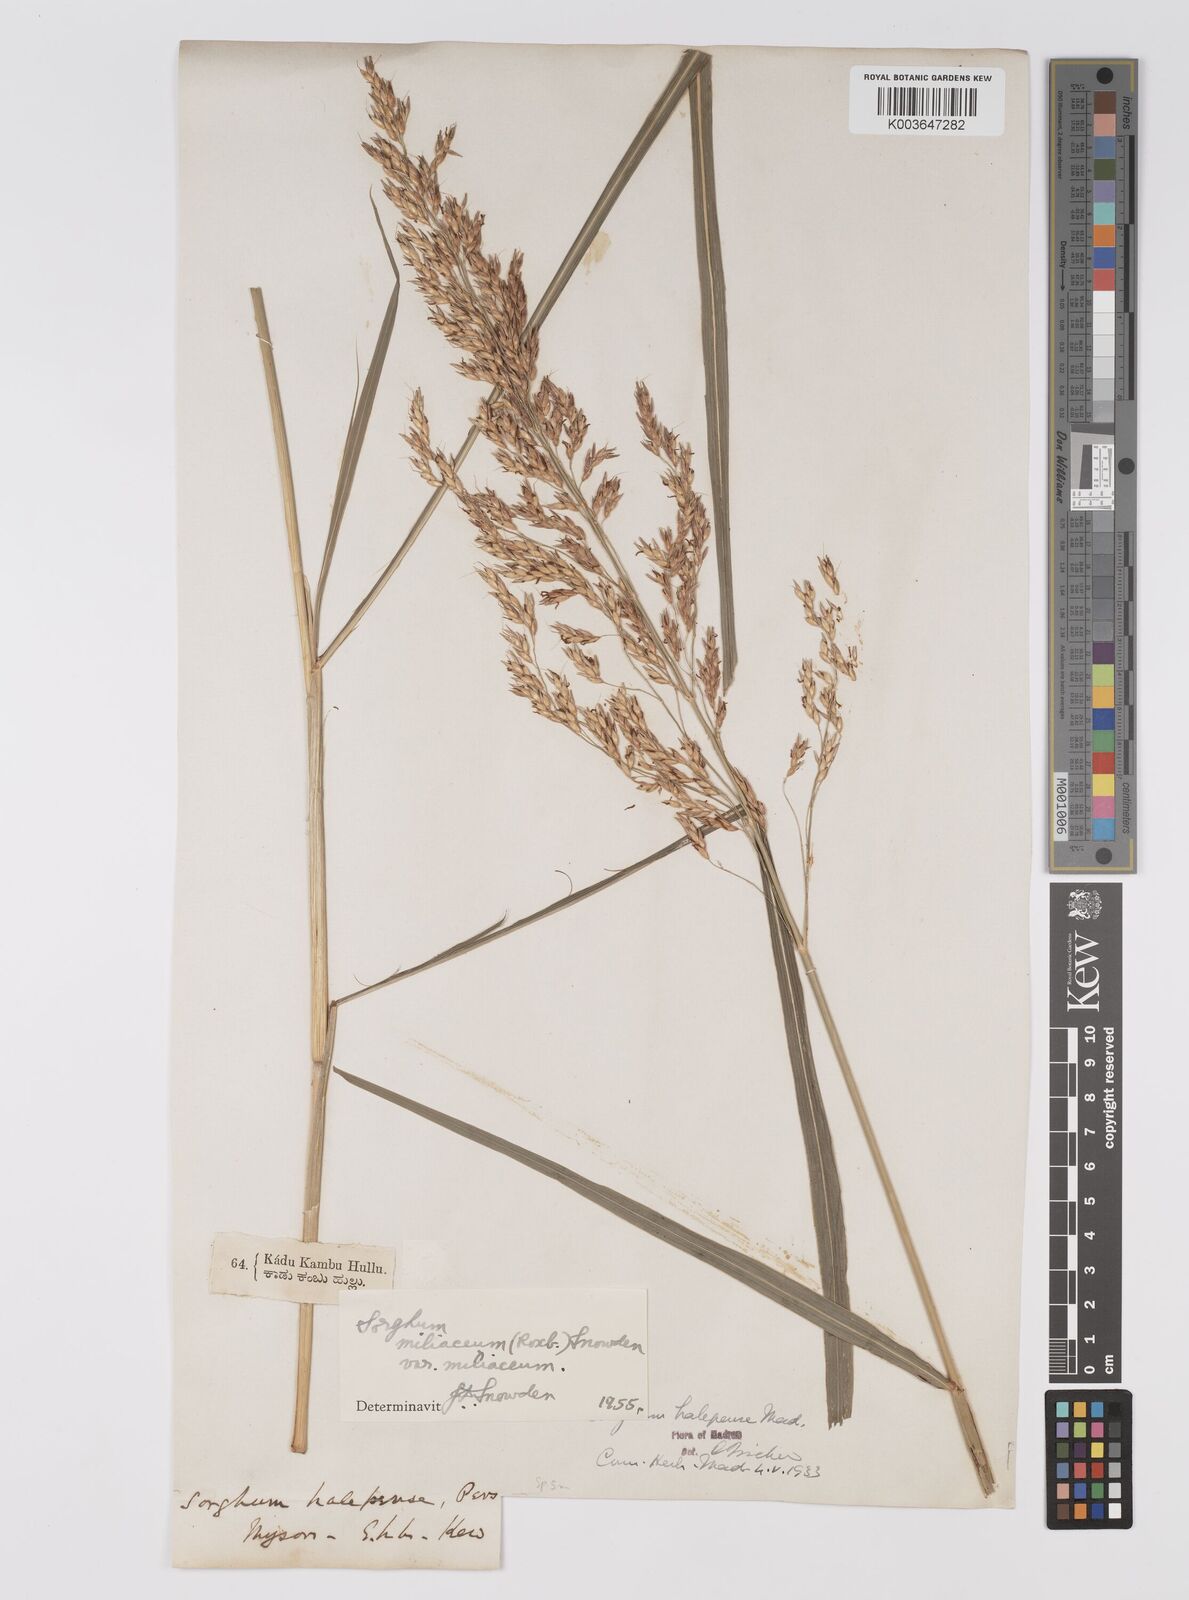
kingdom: Plantae
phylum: Tracheophyta
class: Liliopsida
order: Poales
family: Poaceae
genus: Sorghum
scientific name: Sorghum halepense
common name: Johnson-grass
